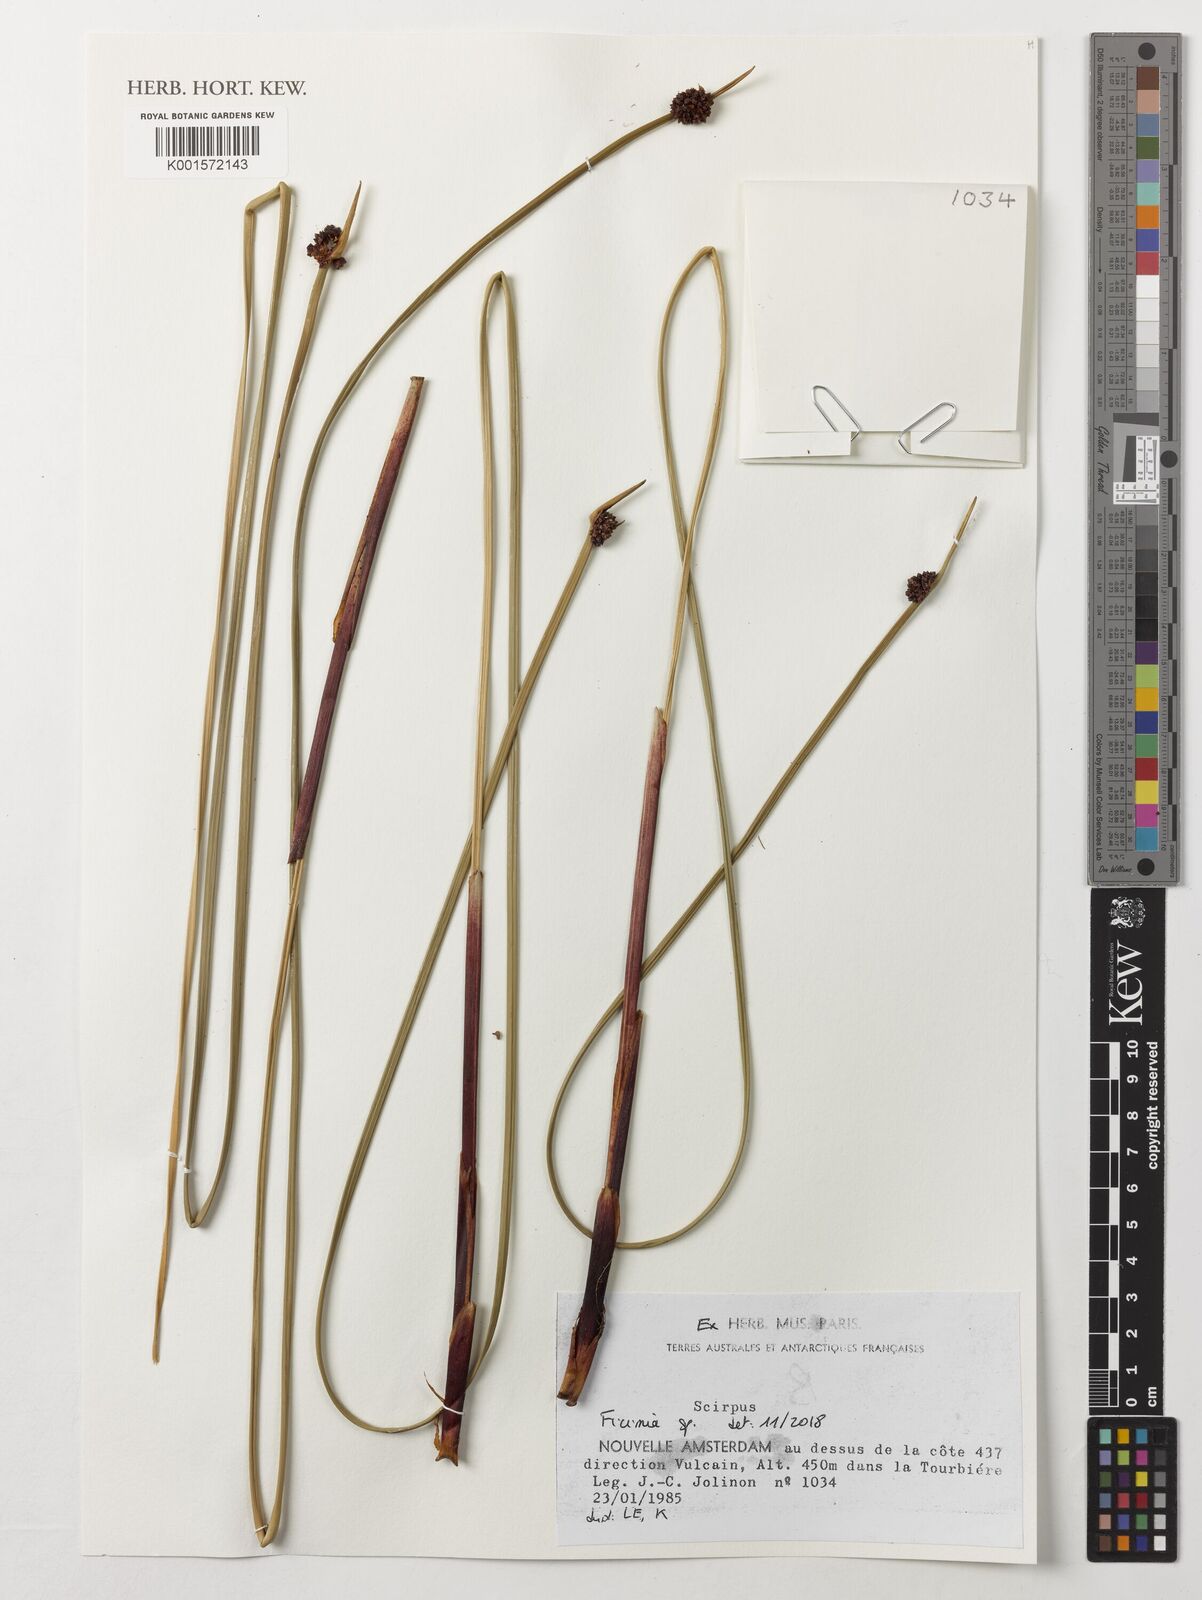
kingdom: Plantae
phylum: Tracheophyta
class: Liliopsida
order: Poales
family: Cyperaceae
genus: Ficinia
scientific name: Ficinia
